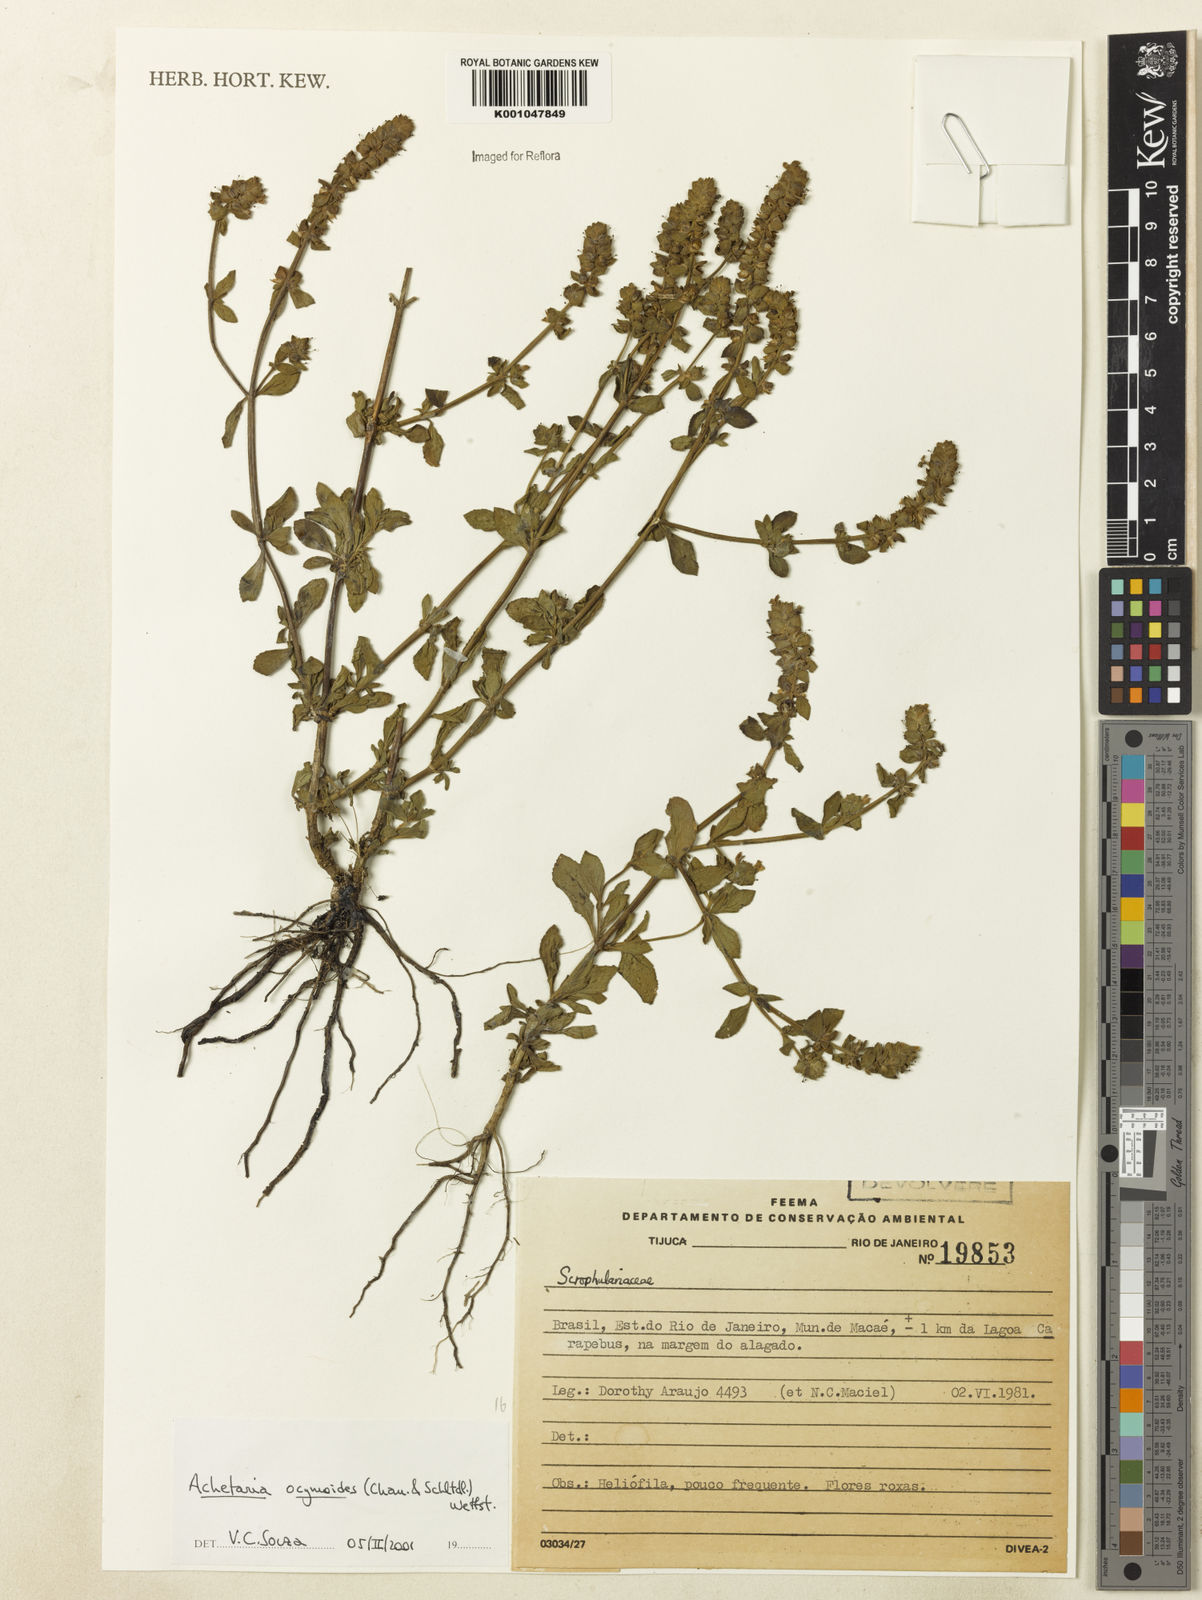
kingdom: Plantae
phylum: Tracheophyta
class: Magnoliopsida
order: Lamiales
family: Plantaginaceae
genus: Matourea
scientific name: Matourea ocymoides
